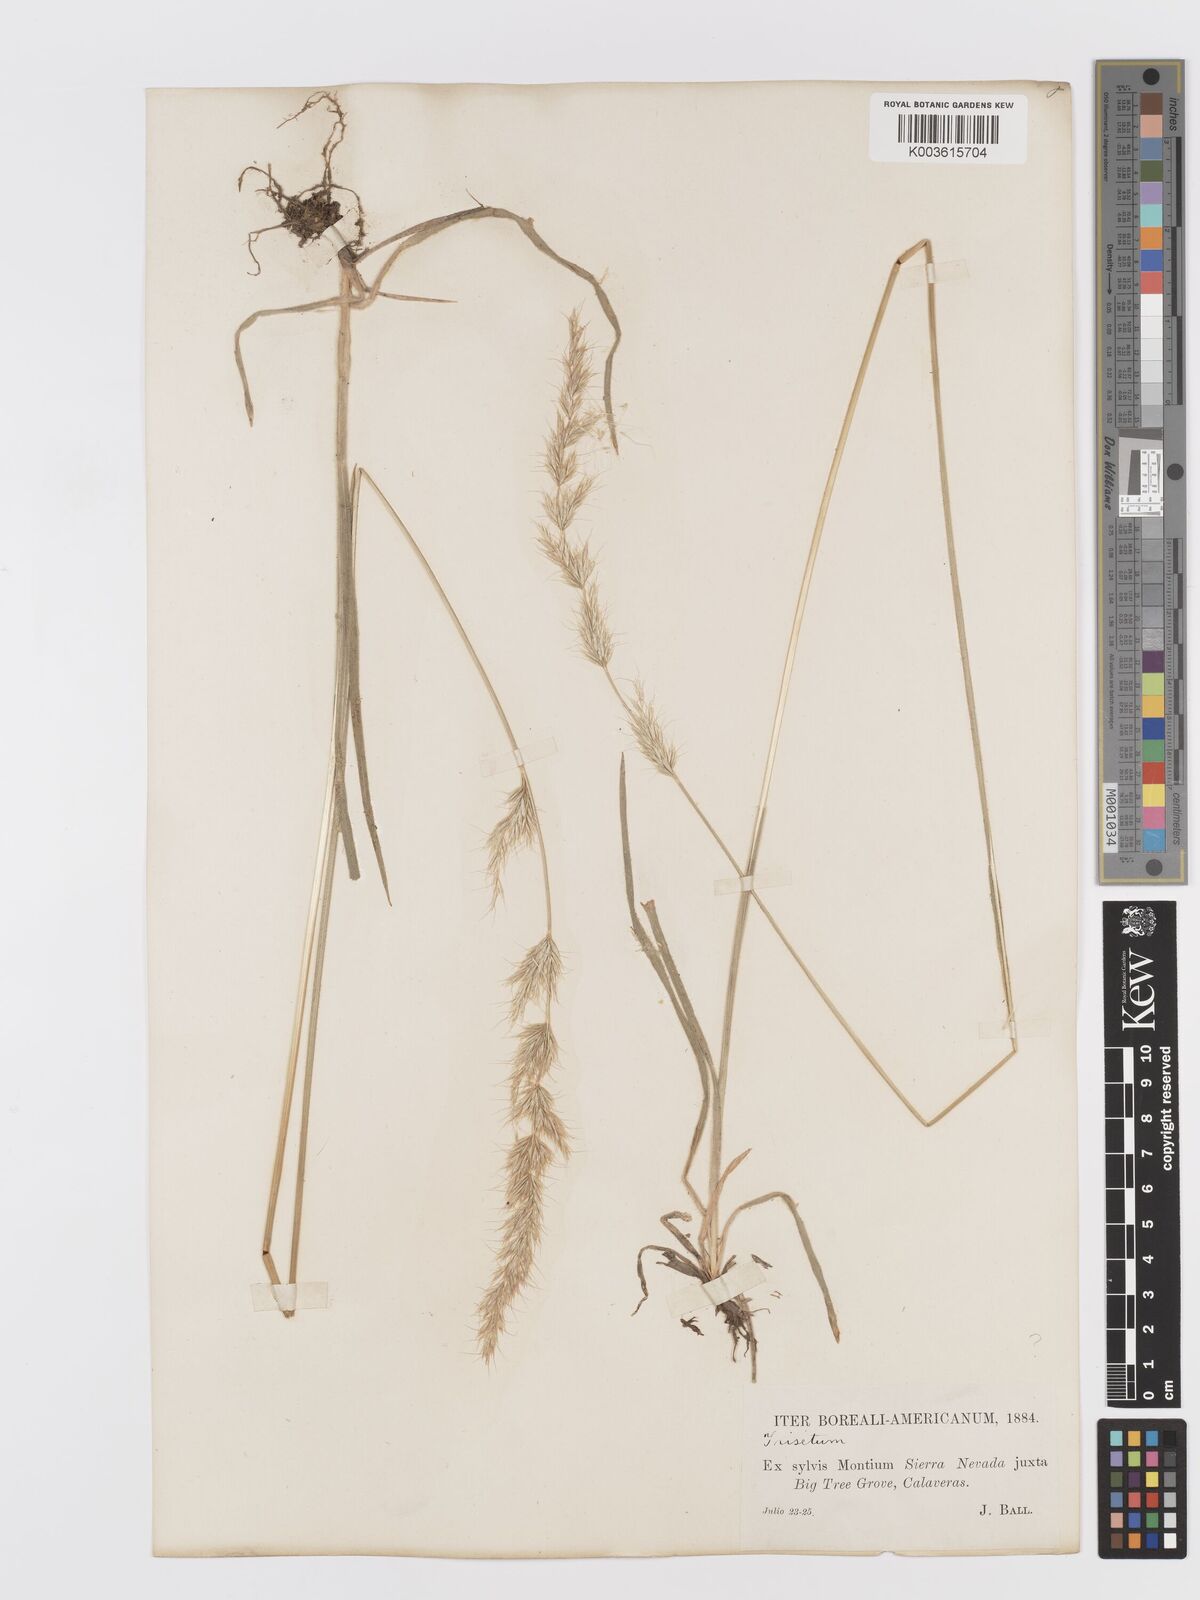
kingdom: Plantae
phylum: Tracheophyta
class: Liliopsida
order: Poales
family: Poaceae
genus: Koeleria
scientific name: Koeleria spicata
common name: Mountain trisetum
